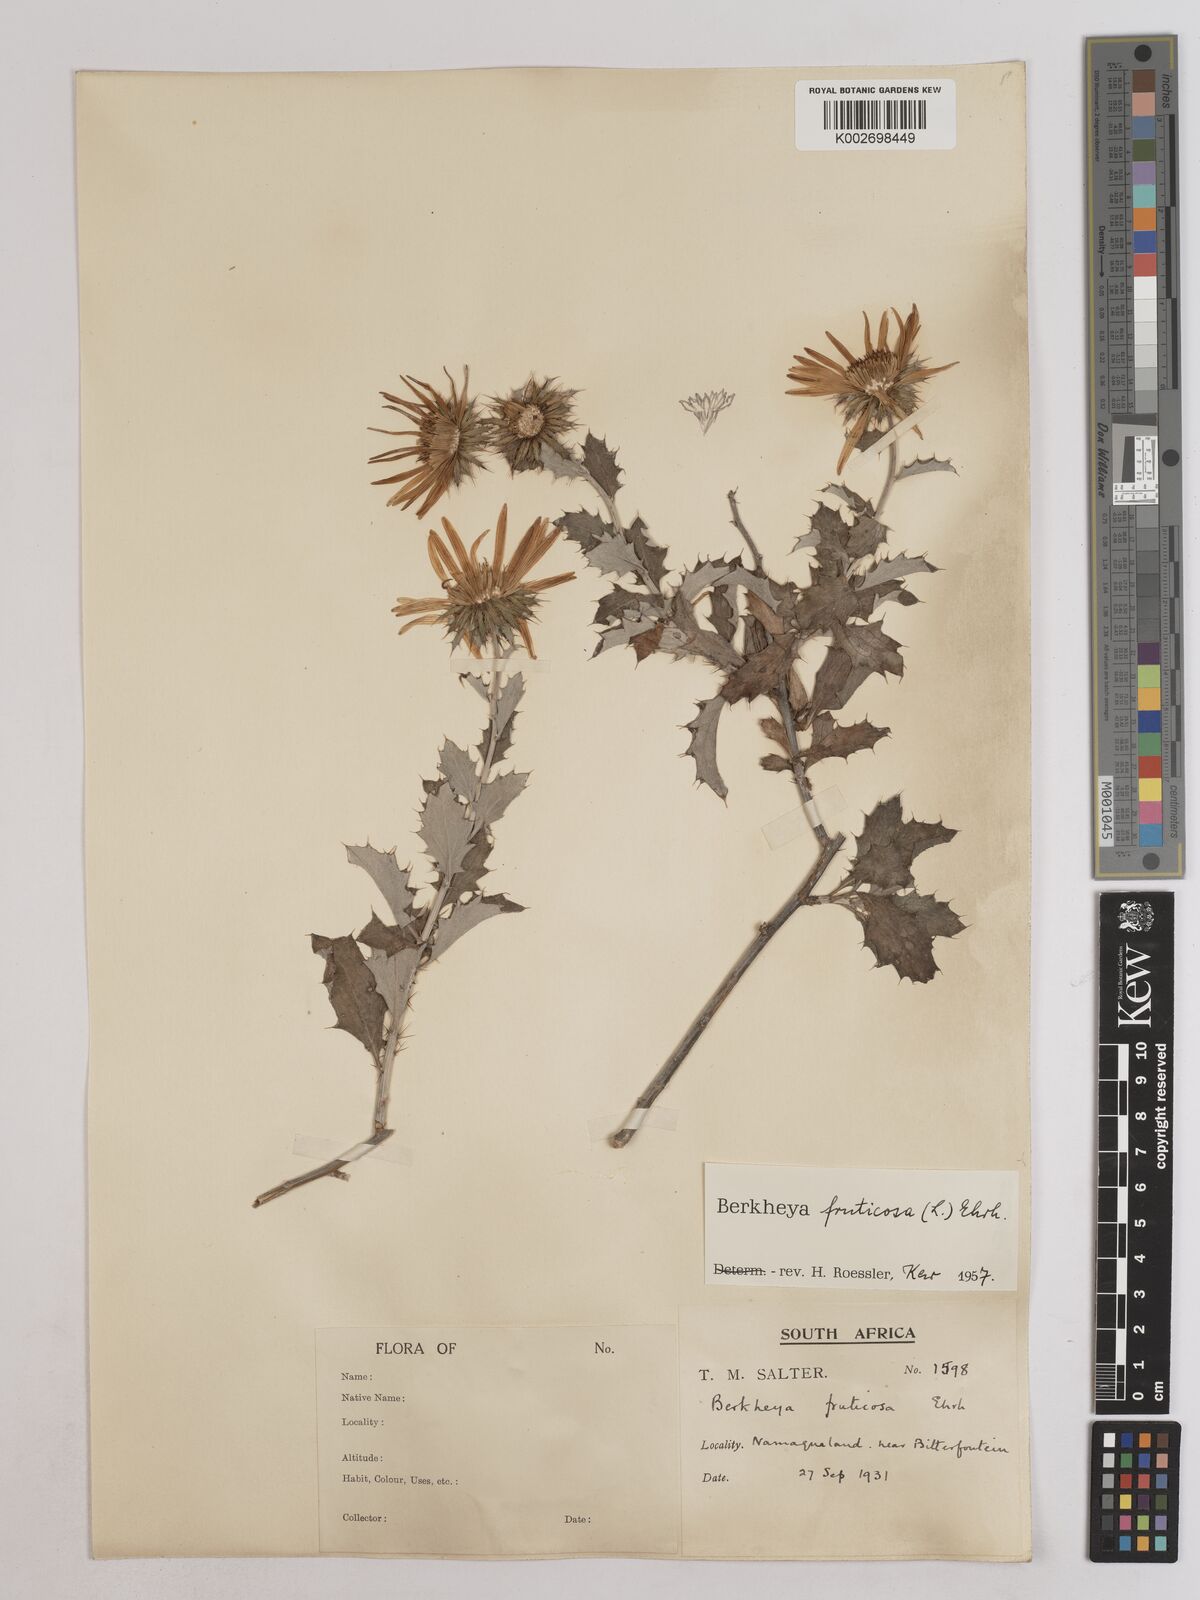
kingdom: Plantae
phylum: Tracheophyta
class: Magnoliopsida
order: Asterales
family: Asteraceae
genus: Berkheya
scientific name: Berkheya fruticosa
